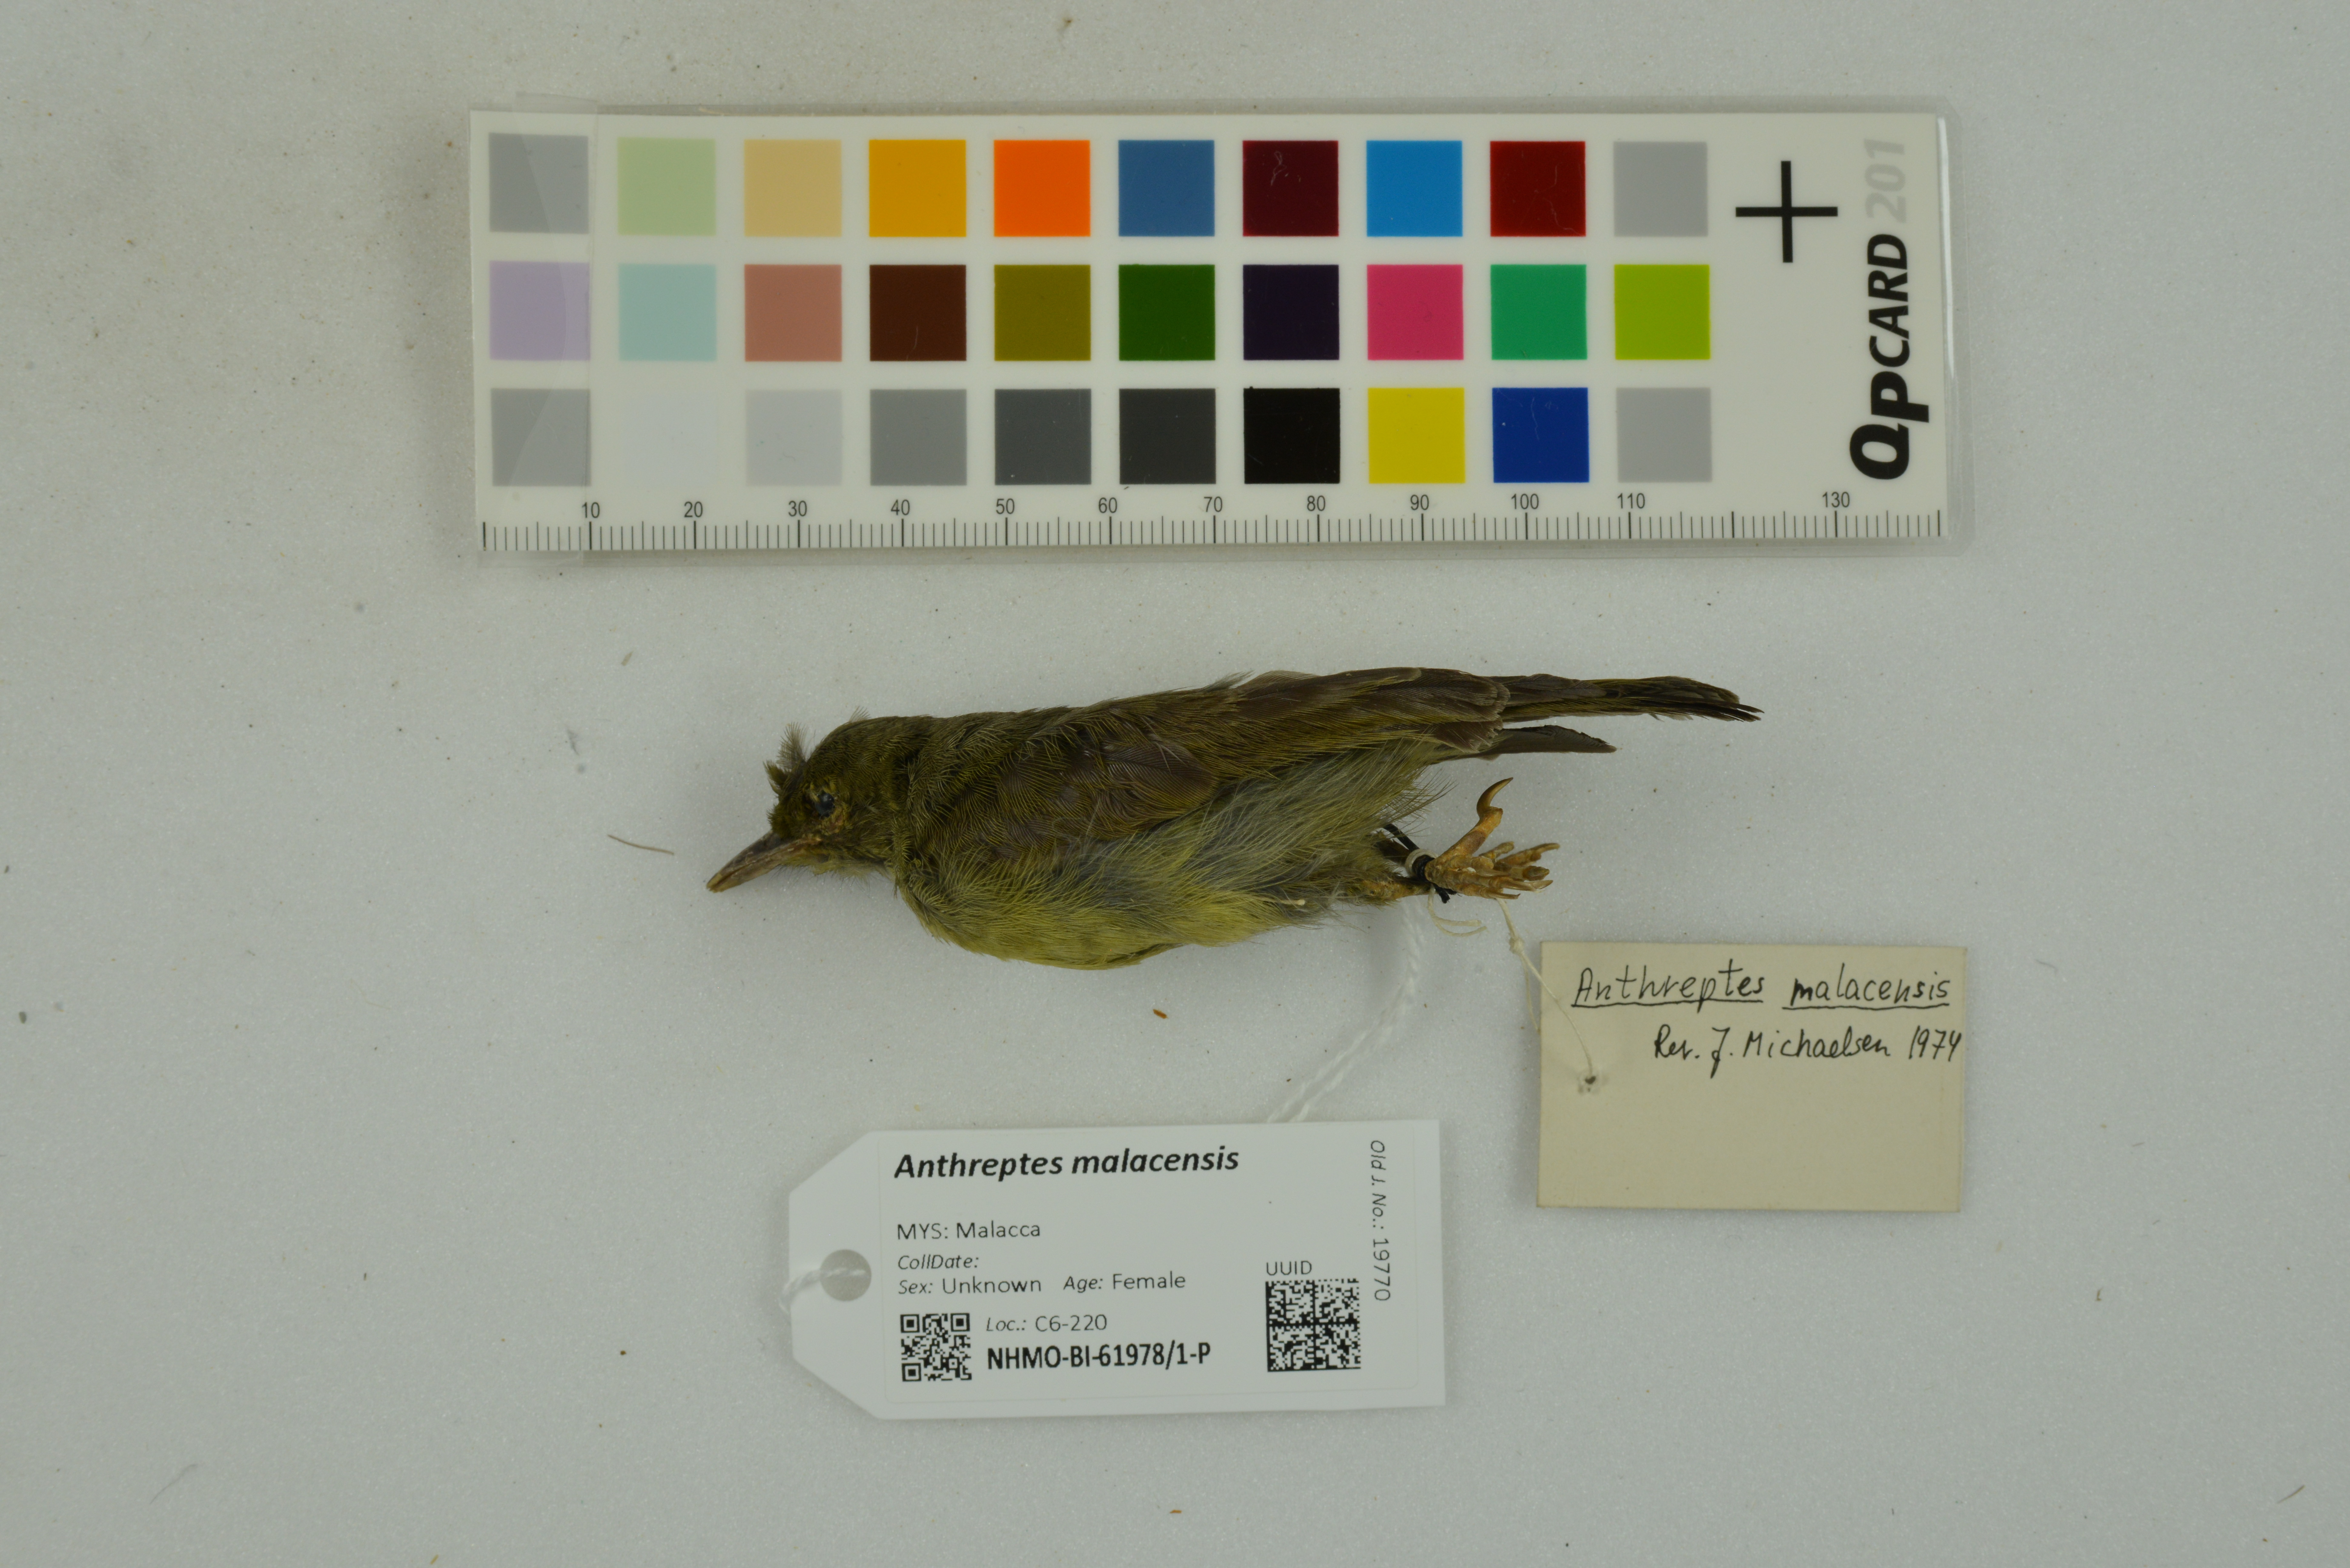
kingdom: Animalia
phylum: Chordata
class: Aves
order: Passeriformes
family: Nectariniidae
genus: Anthreptes
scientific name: Anthreptes malacensis
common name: Brown-throated sunbird
